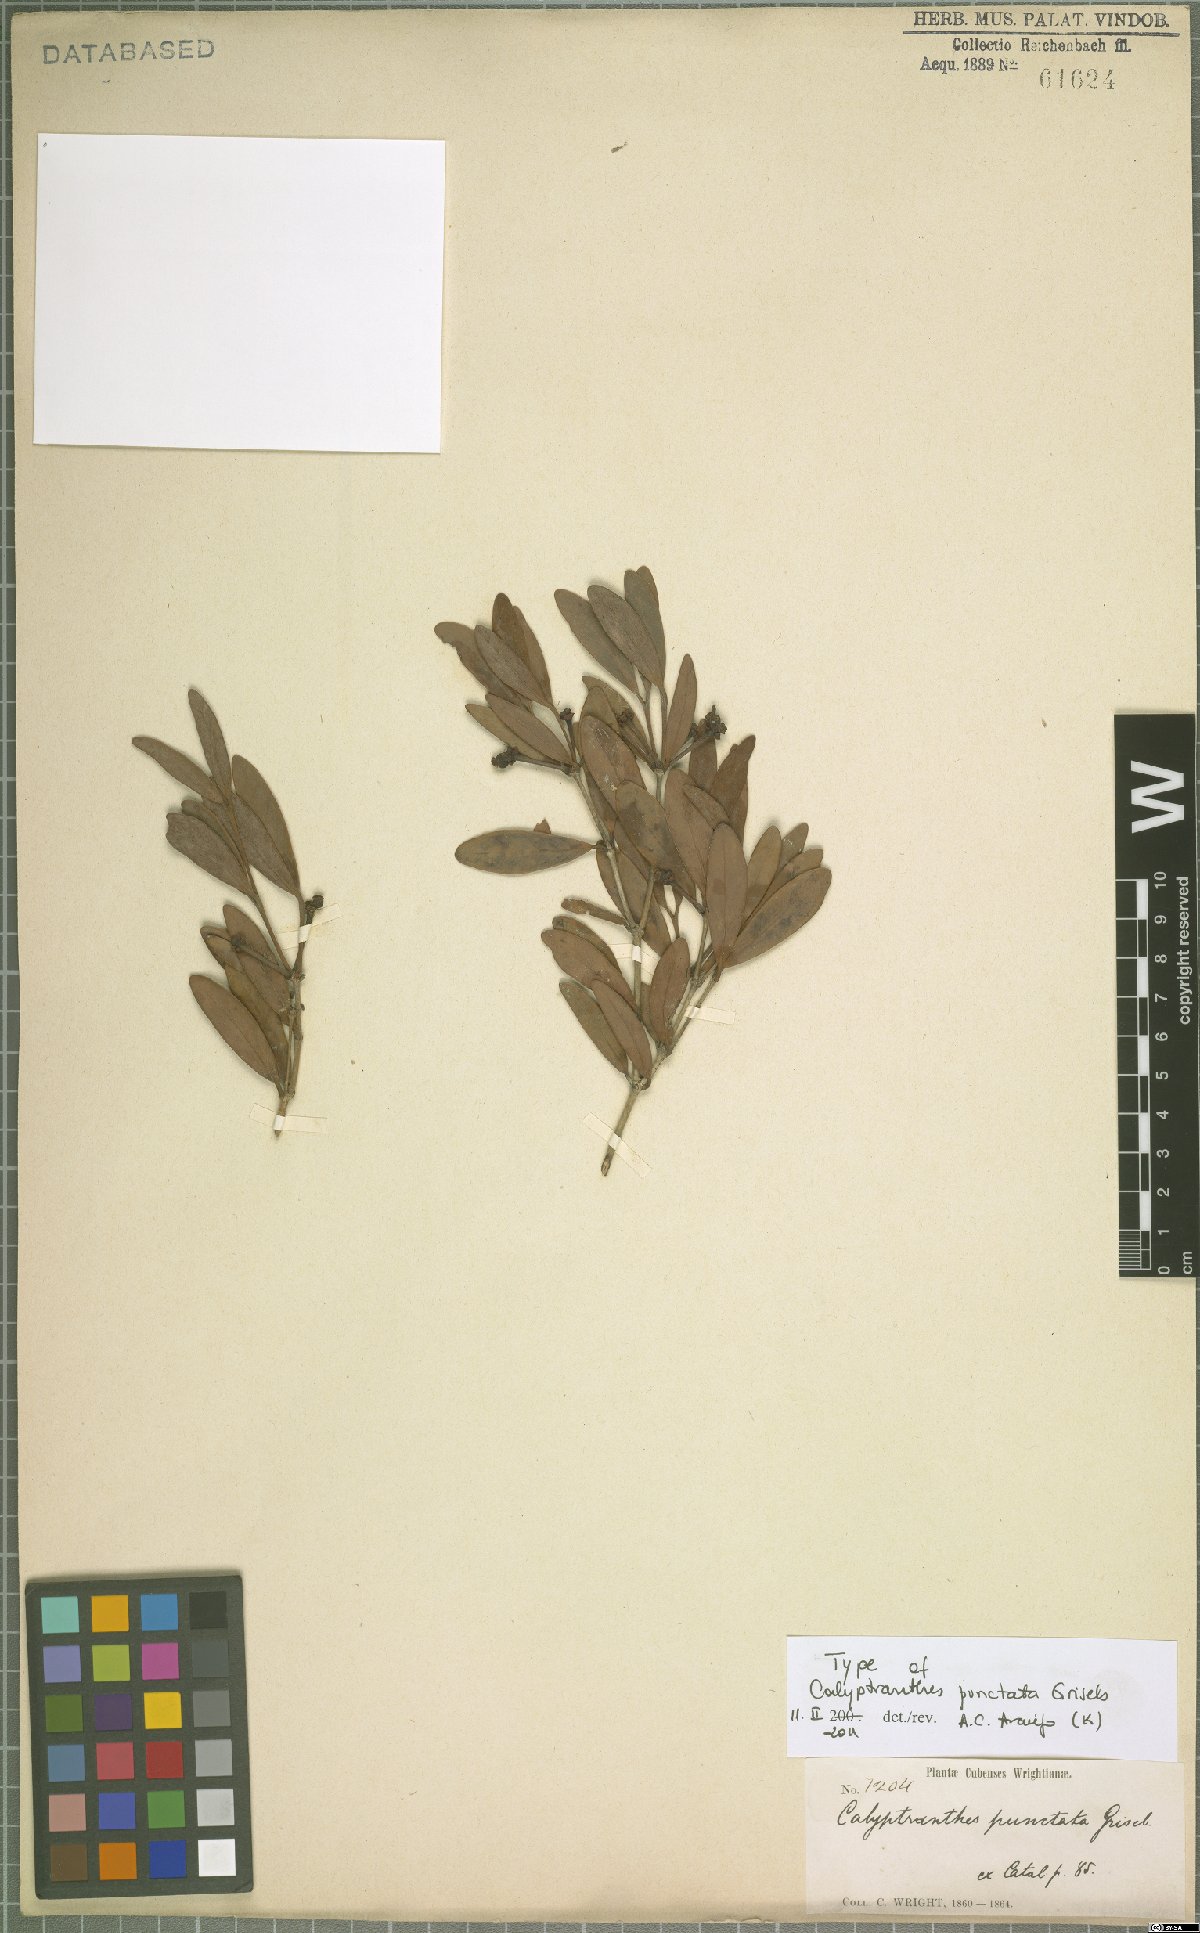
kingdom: Plantae
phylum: Tracheophyta
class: Magnoliopsida
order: Myrtales
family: Myrtaceae
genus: Myrcia
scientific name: Myrcia foramina
